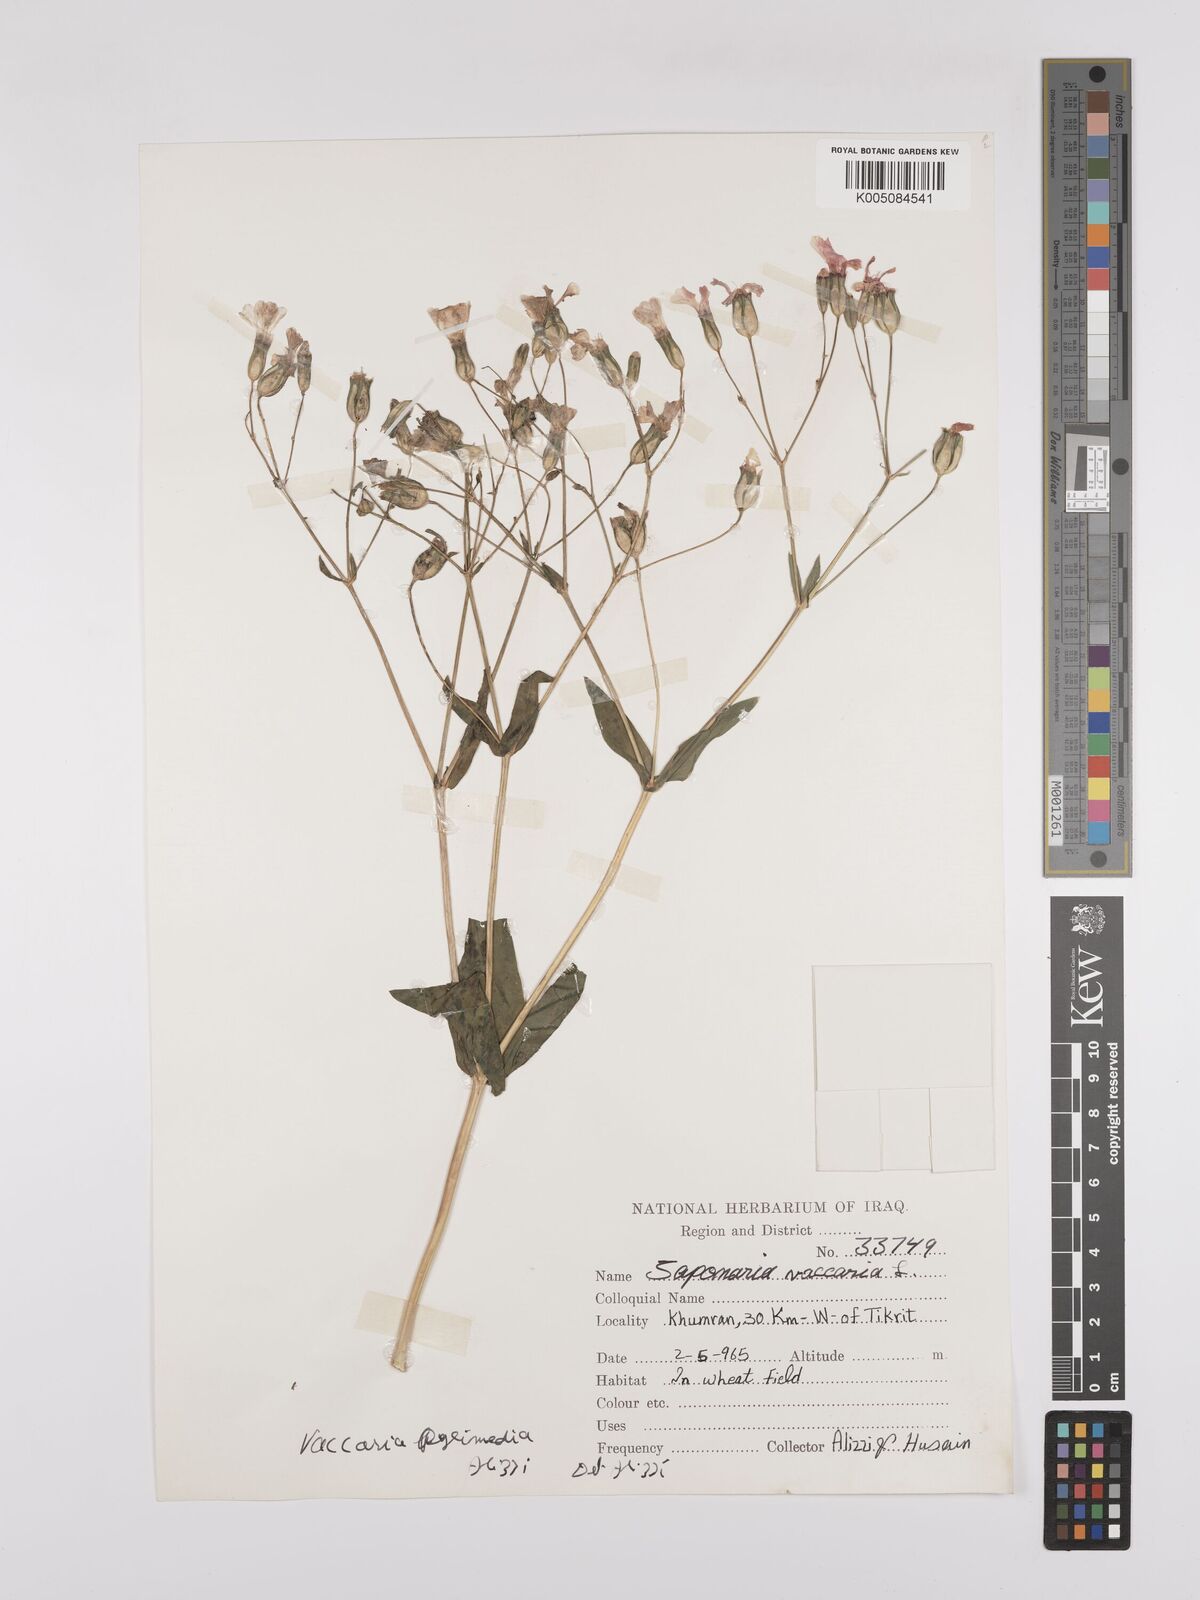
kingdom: Plantae
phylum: Tracheophyta
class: Magnoliopsida
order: Caryophyllales
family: Caryophyllaceae
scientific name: Caryophyllaceae
